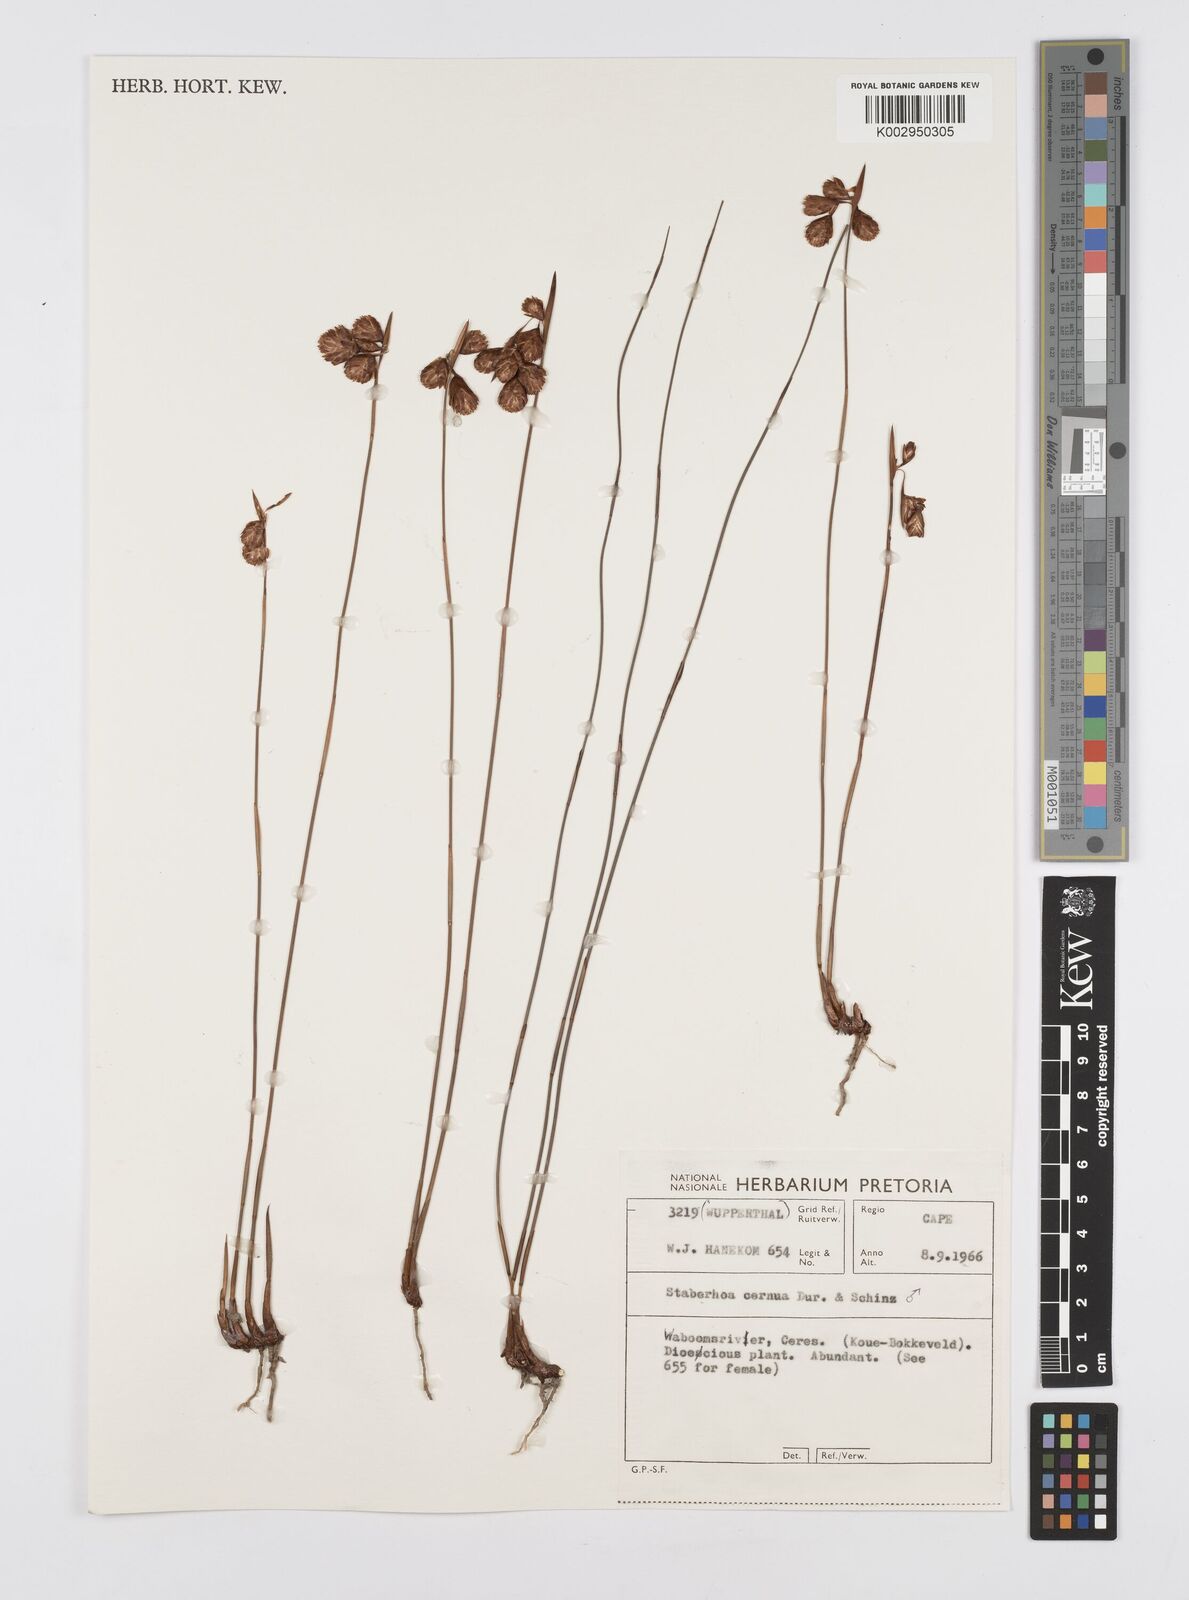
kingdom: Plantae
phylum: Tracheophyta
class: Liliopsida
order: Poales
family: Restionaceae
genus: Staberoha
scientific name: Staberoha cernua
